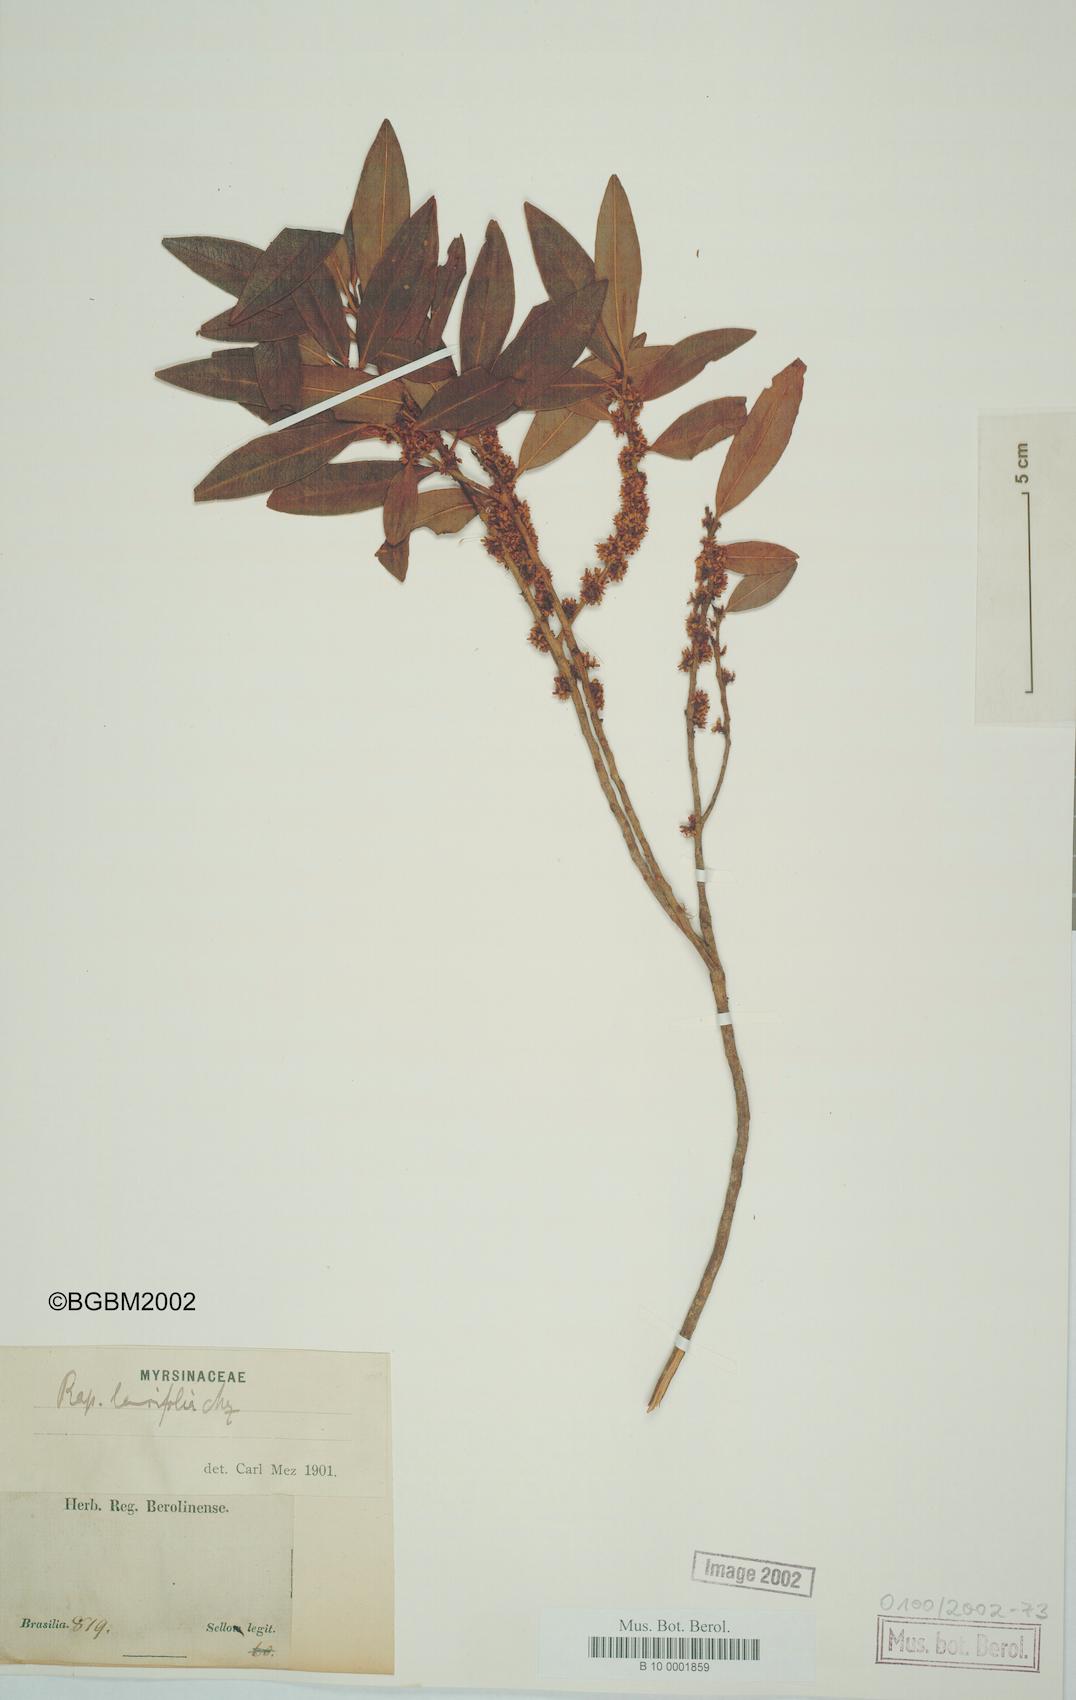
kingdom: Plantae
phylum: Tracheophyta
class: Magnoliopsida
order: Ericales
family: Primulaceae
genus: Myrsine
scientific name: Myrsine latifolia
